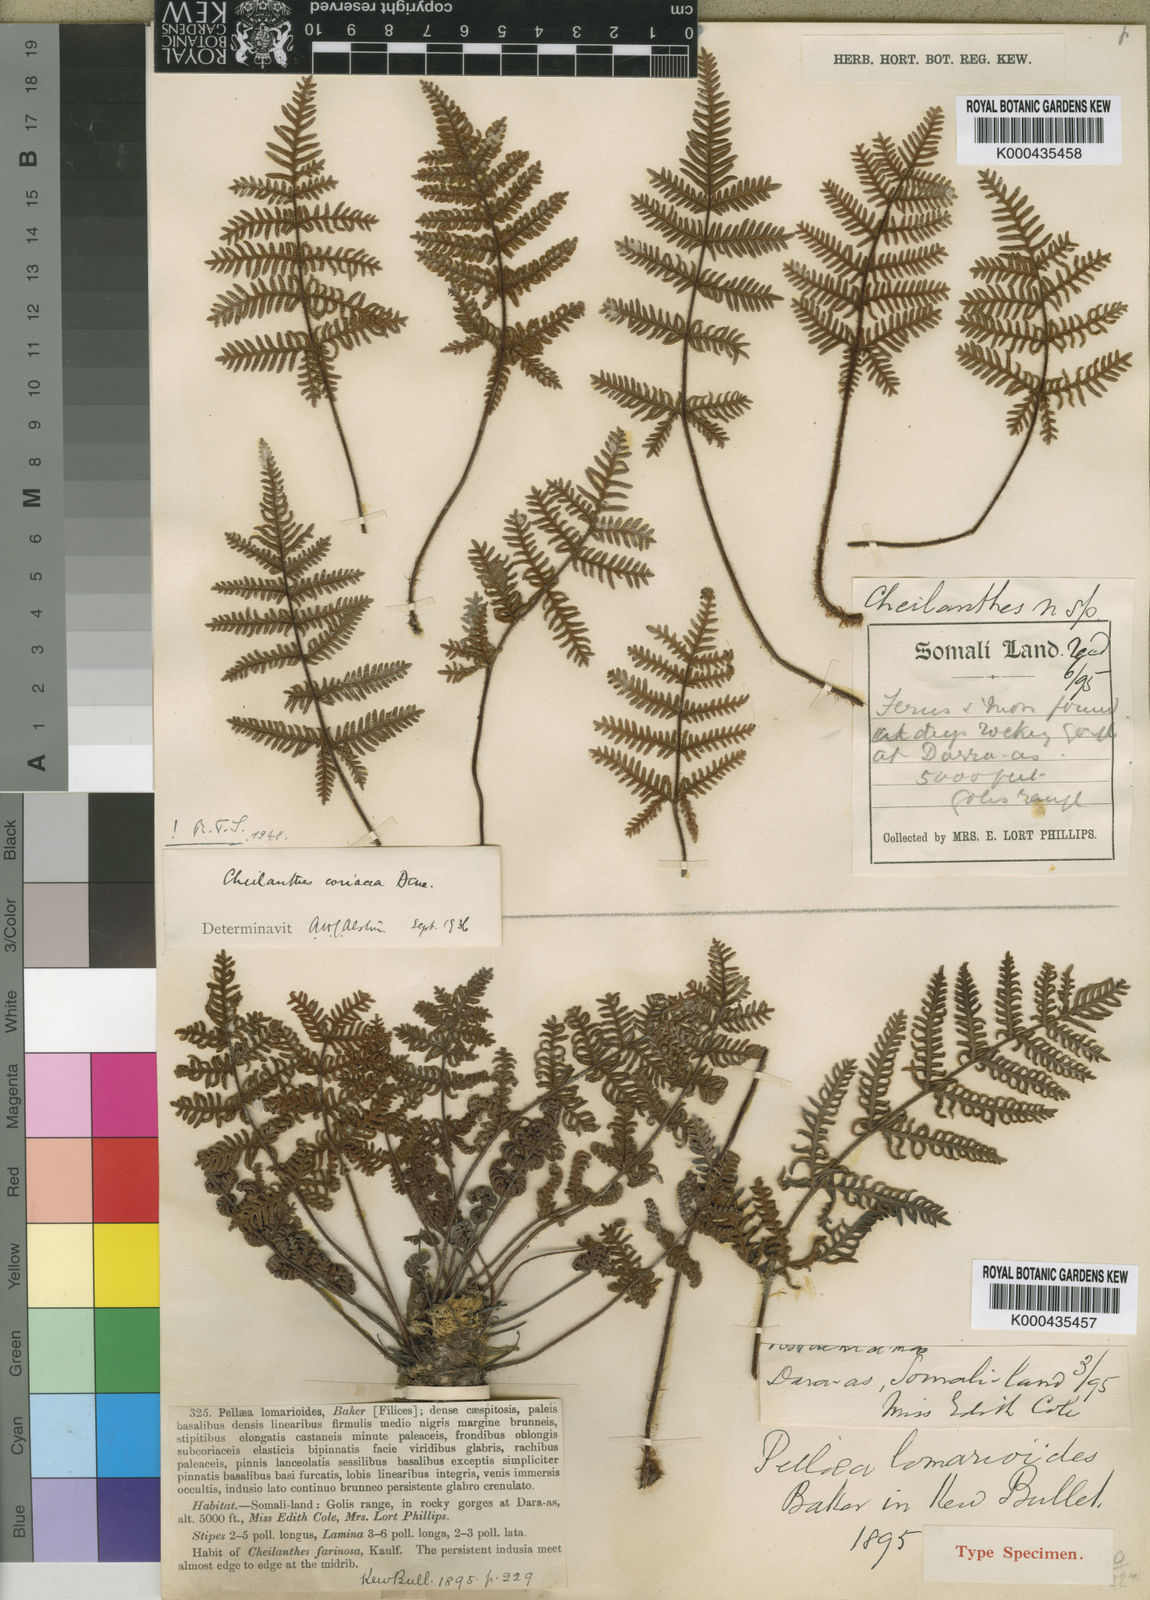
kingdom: Plantae
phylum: Tracheophyta
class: Polypodiopsida
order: Polypodiales
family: Pteridaceae
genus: Oeosporangium
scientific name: Oeosporangium coriaceum
